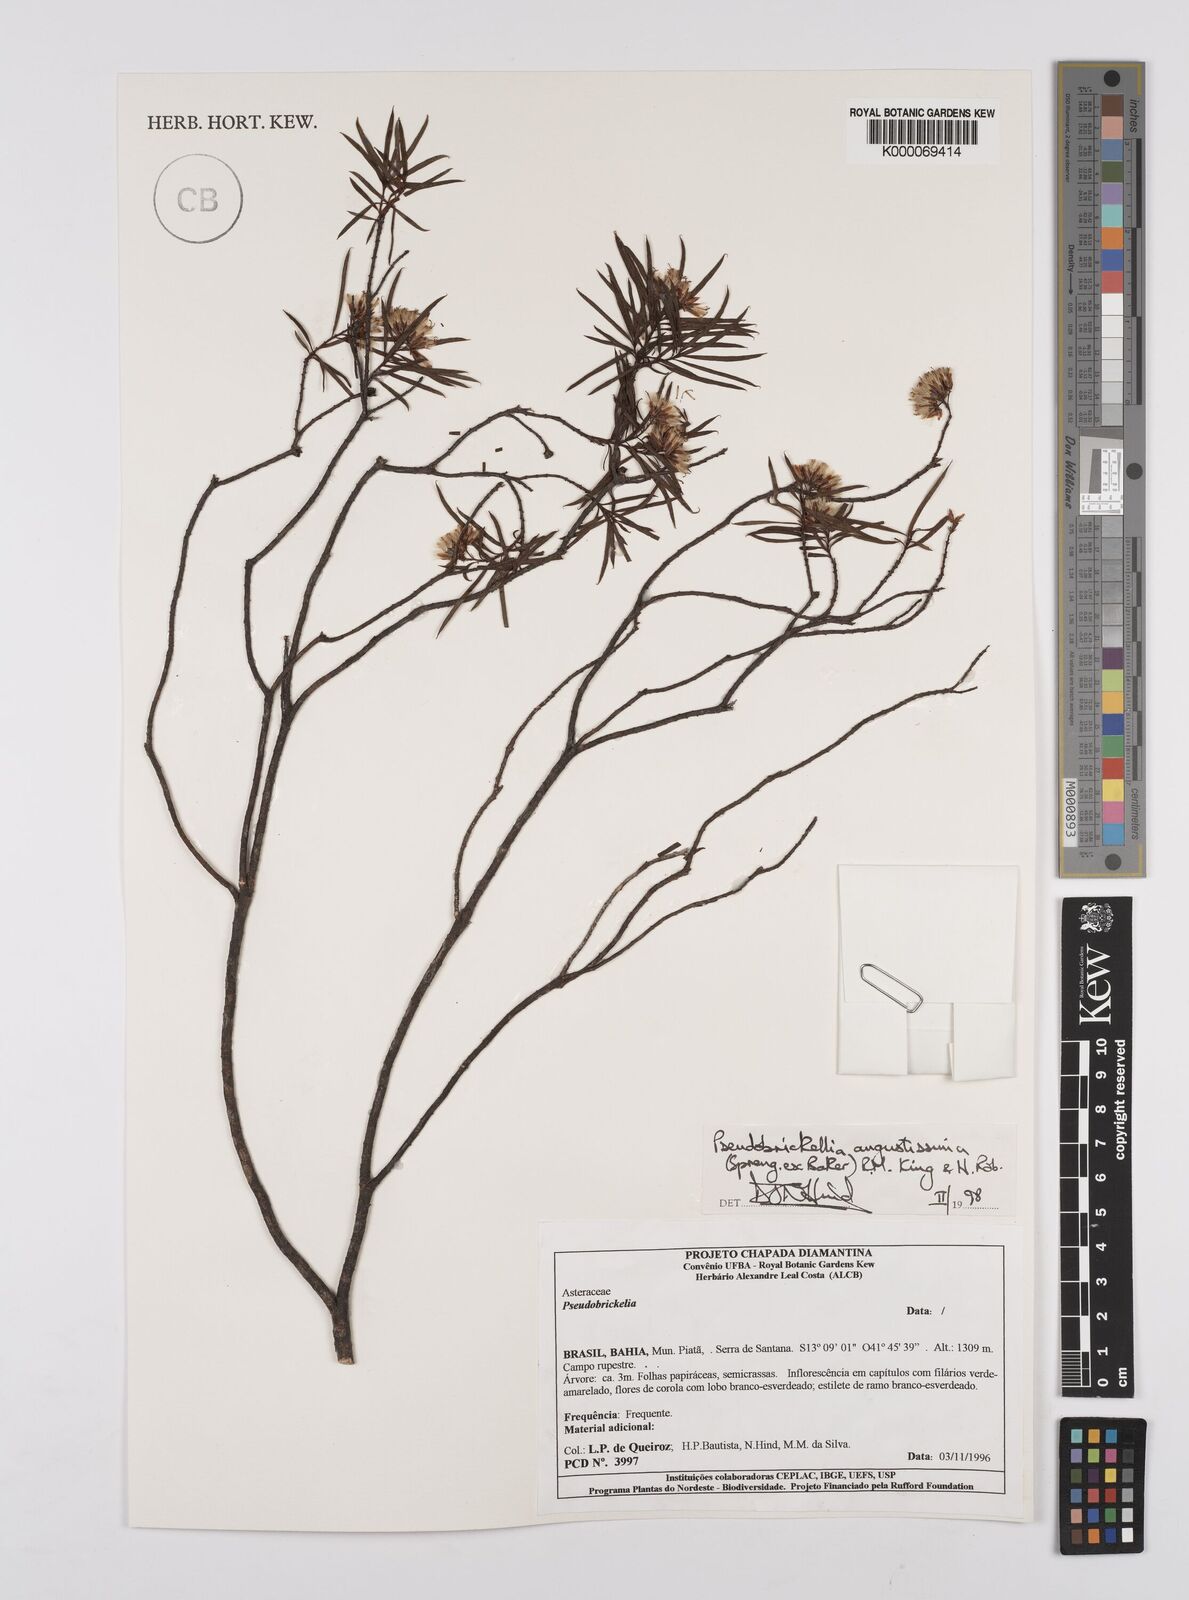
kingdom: Plantae
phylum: Tracheophyta
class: Magnoliopsida
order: Asterales
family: Asteraceae
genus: Pseudobrickellia
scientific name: Pseudobrickellia angustissima
